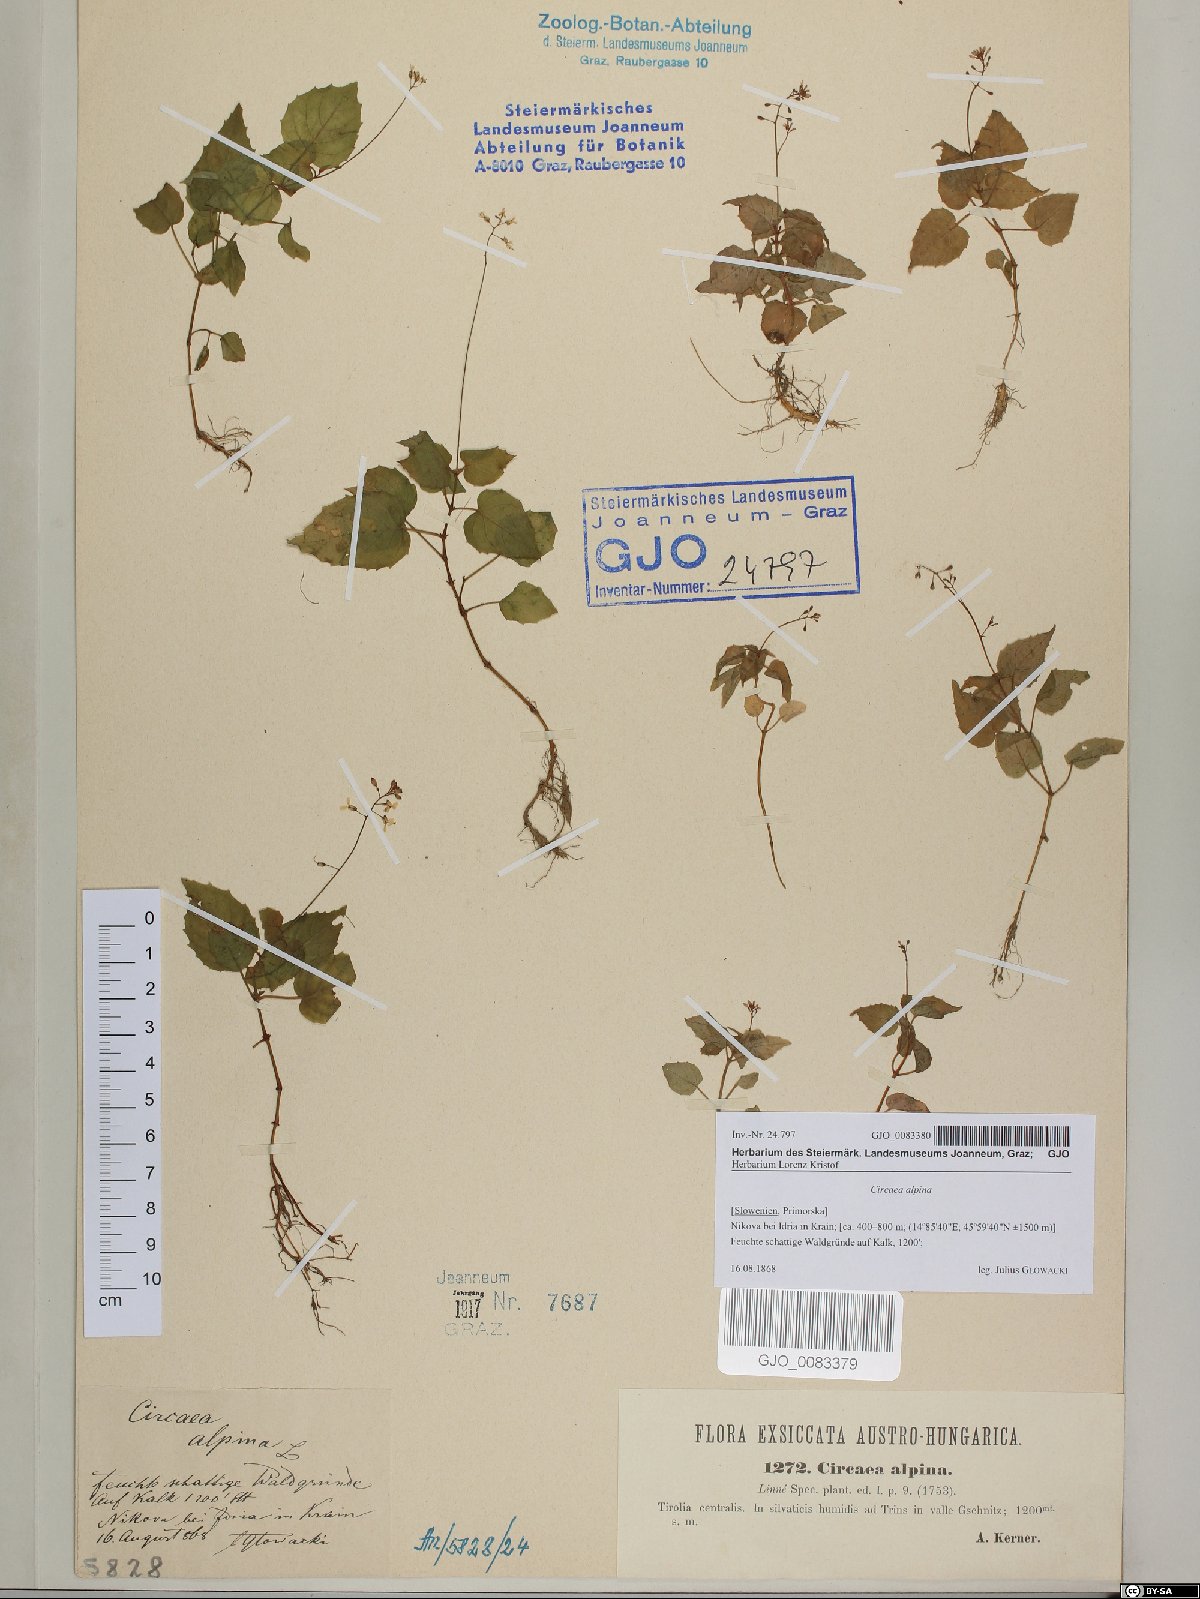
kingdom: Plantae
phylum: Tracheophyta
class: Magnoliopsida
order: Myrtales
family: Onagraceae
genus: Circaea
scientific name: Circaea alpina
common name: Alpine enchanter's-nightshade
